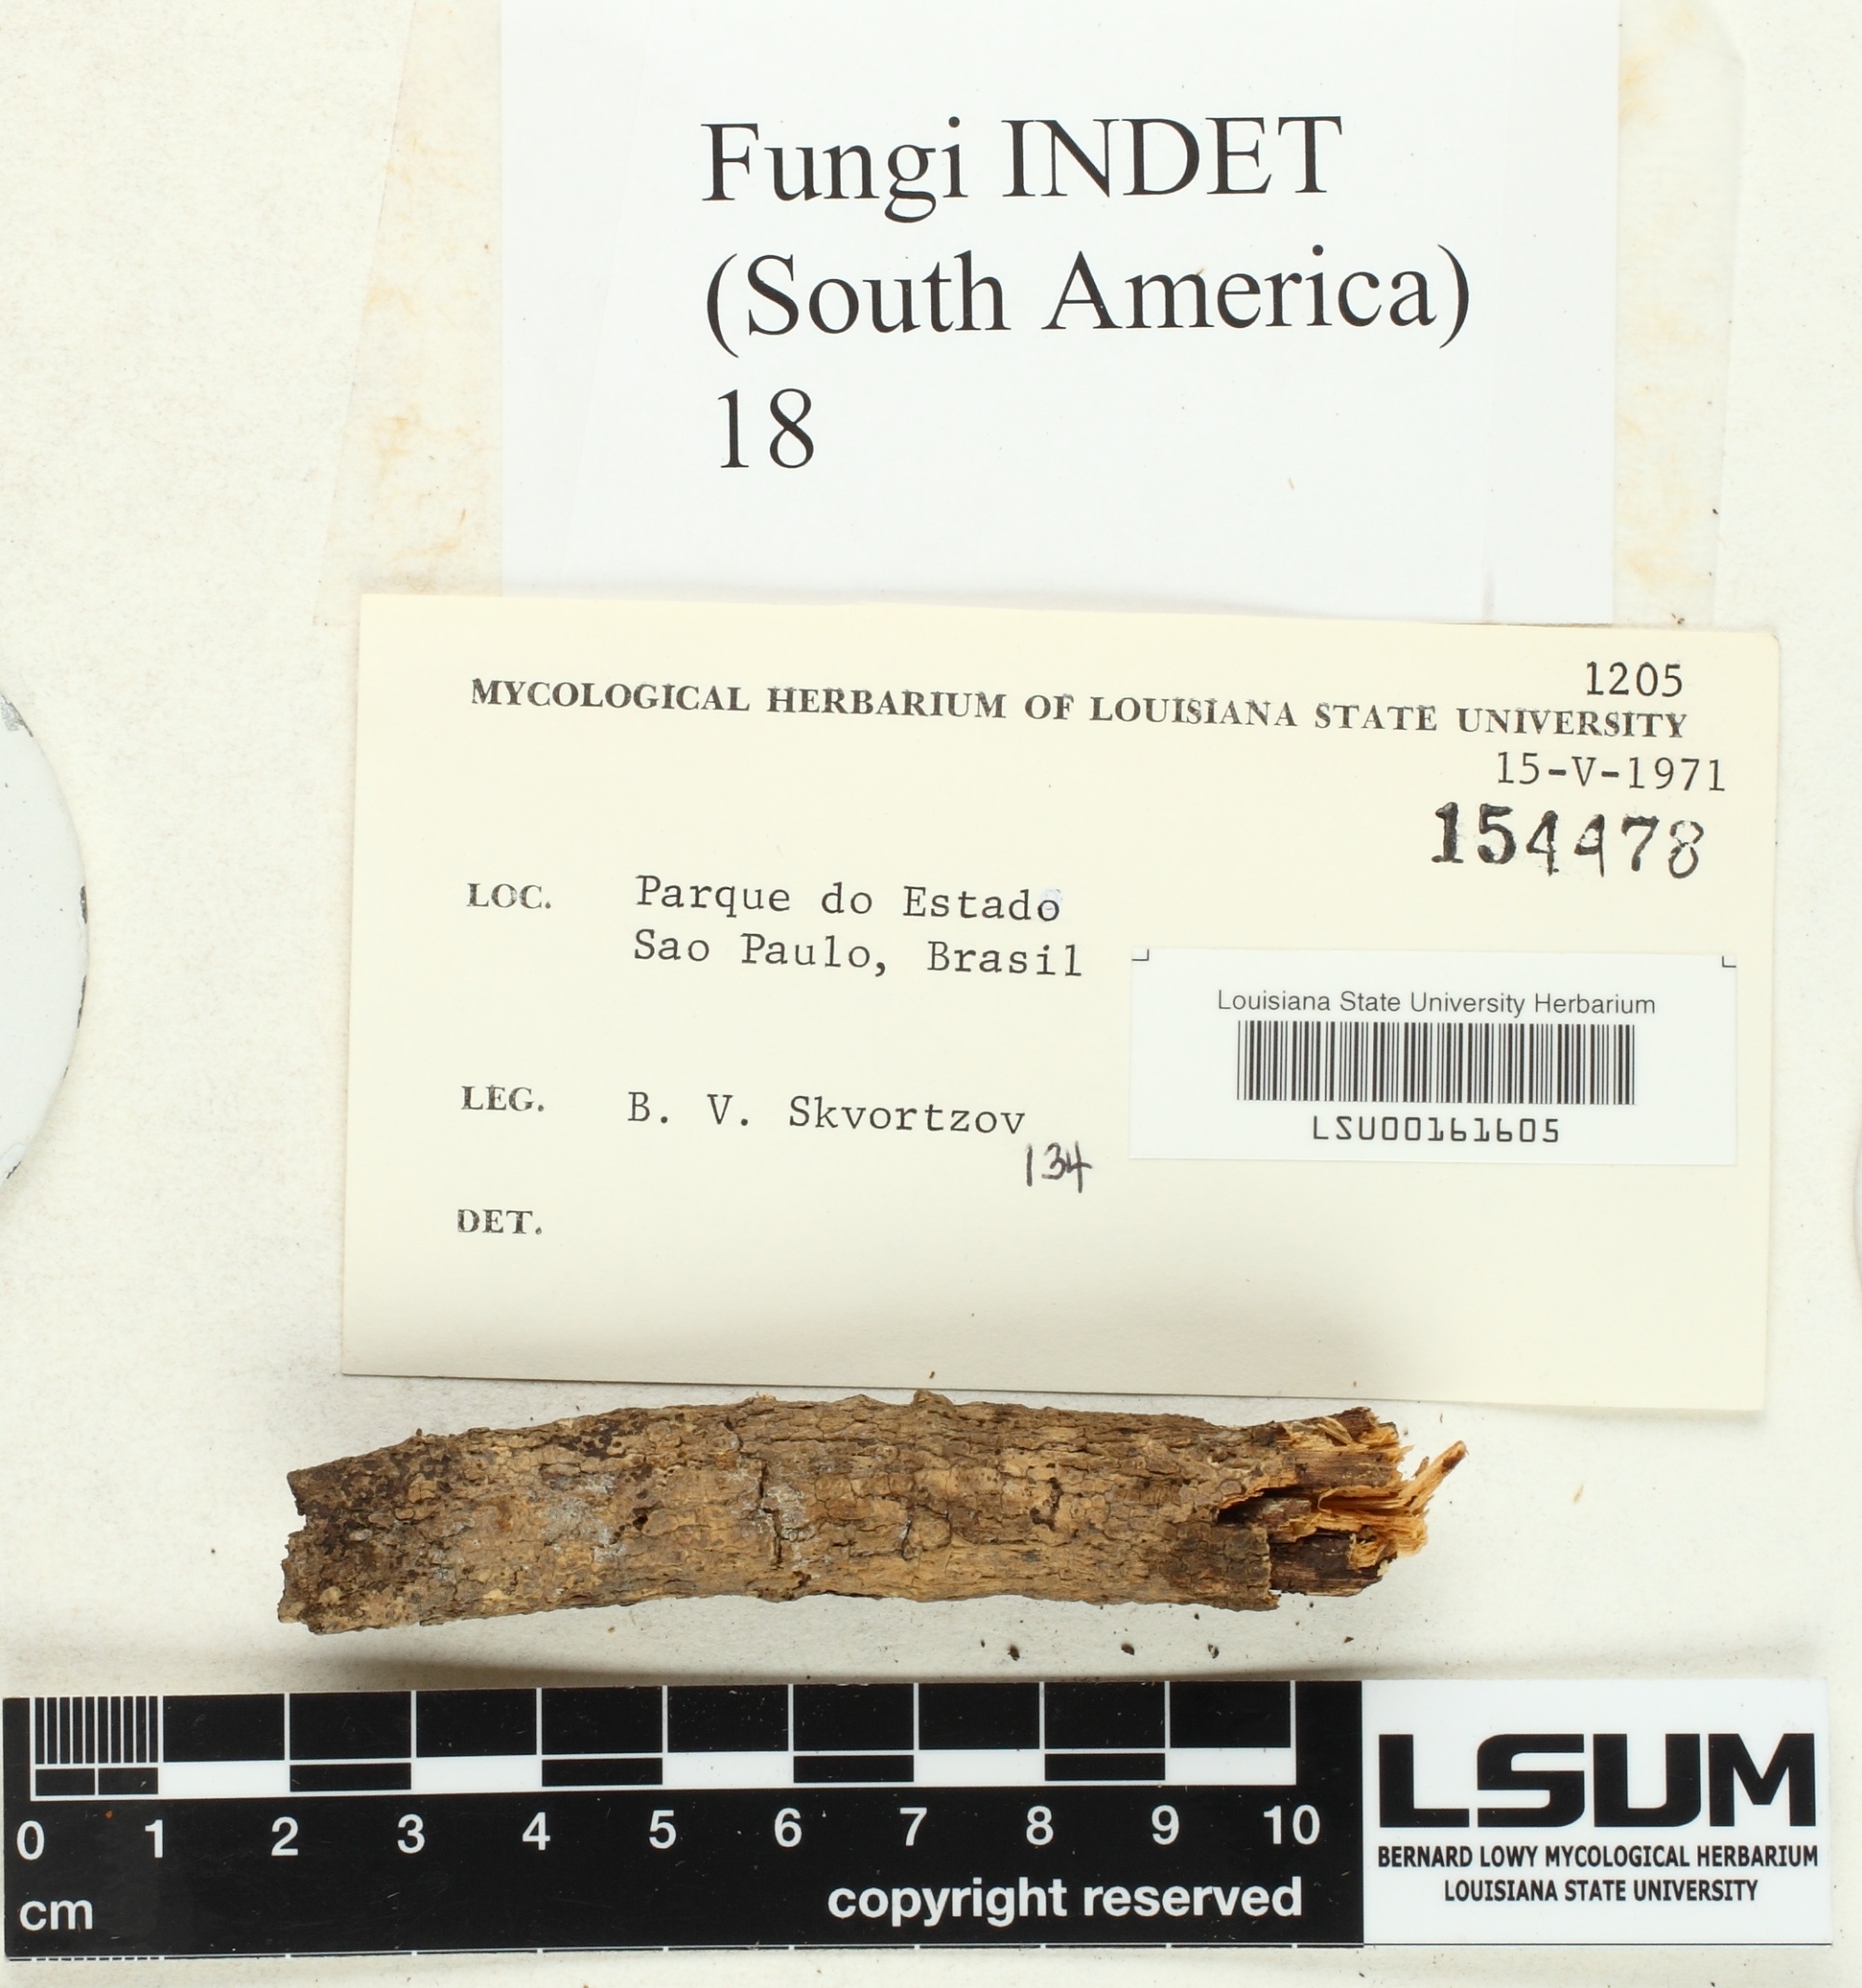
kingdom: Fungi
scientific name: Fungi
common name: Fungi
